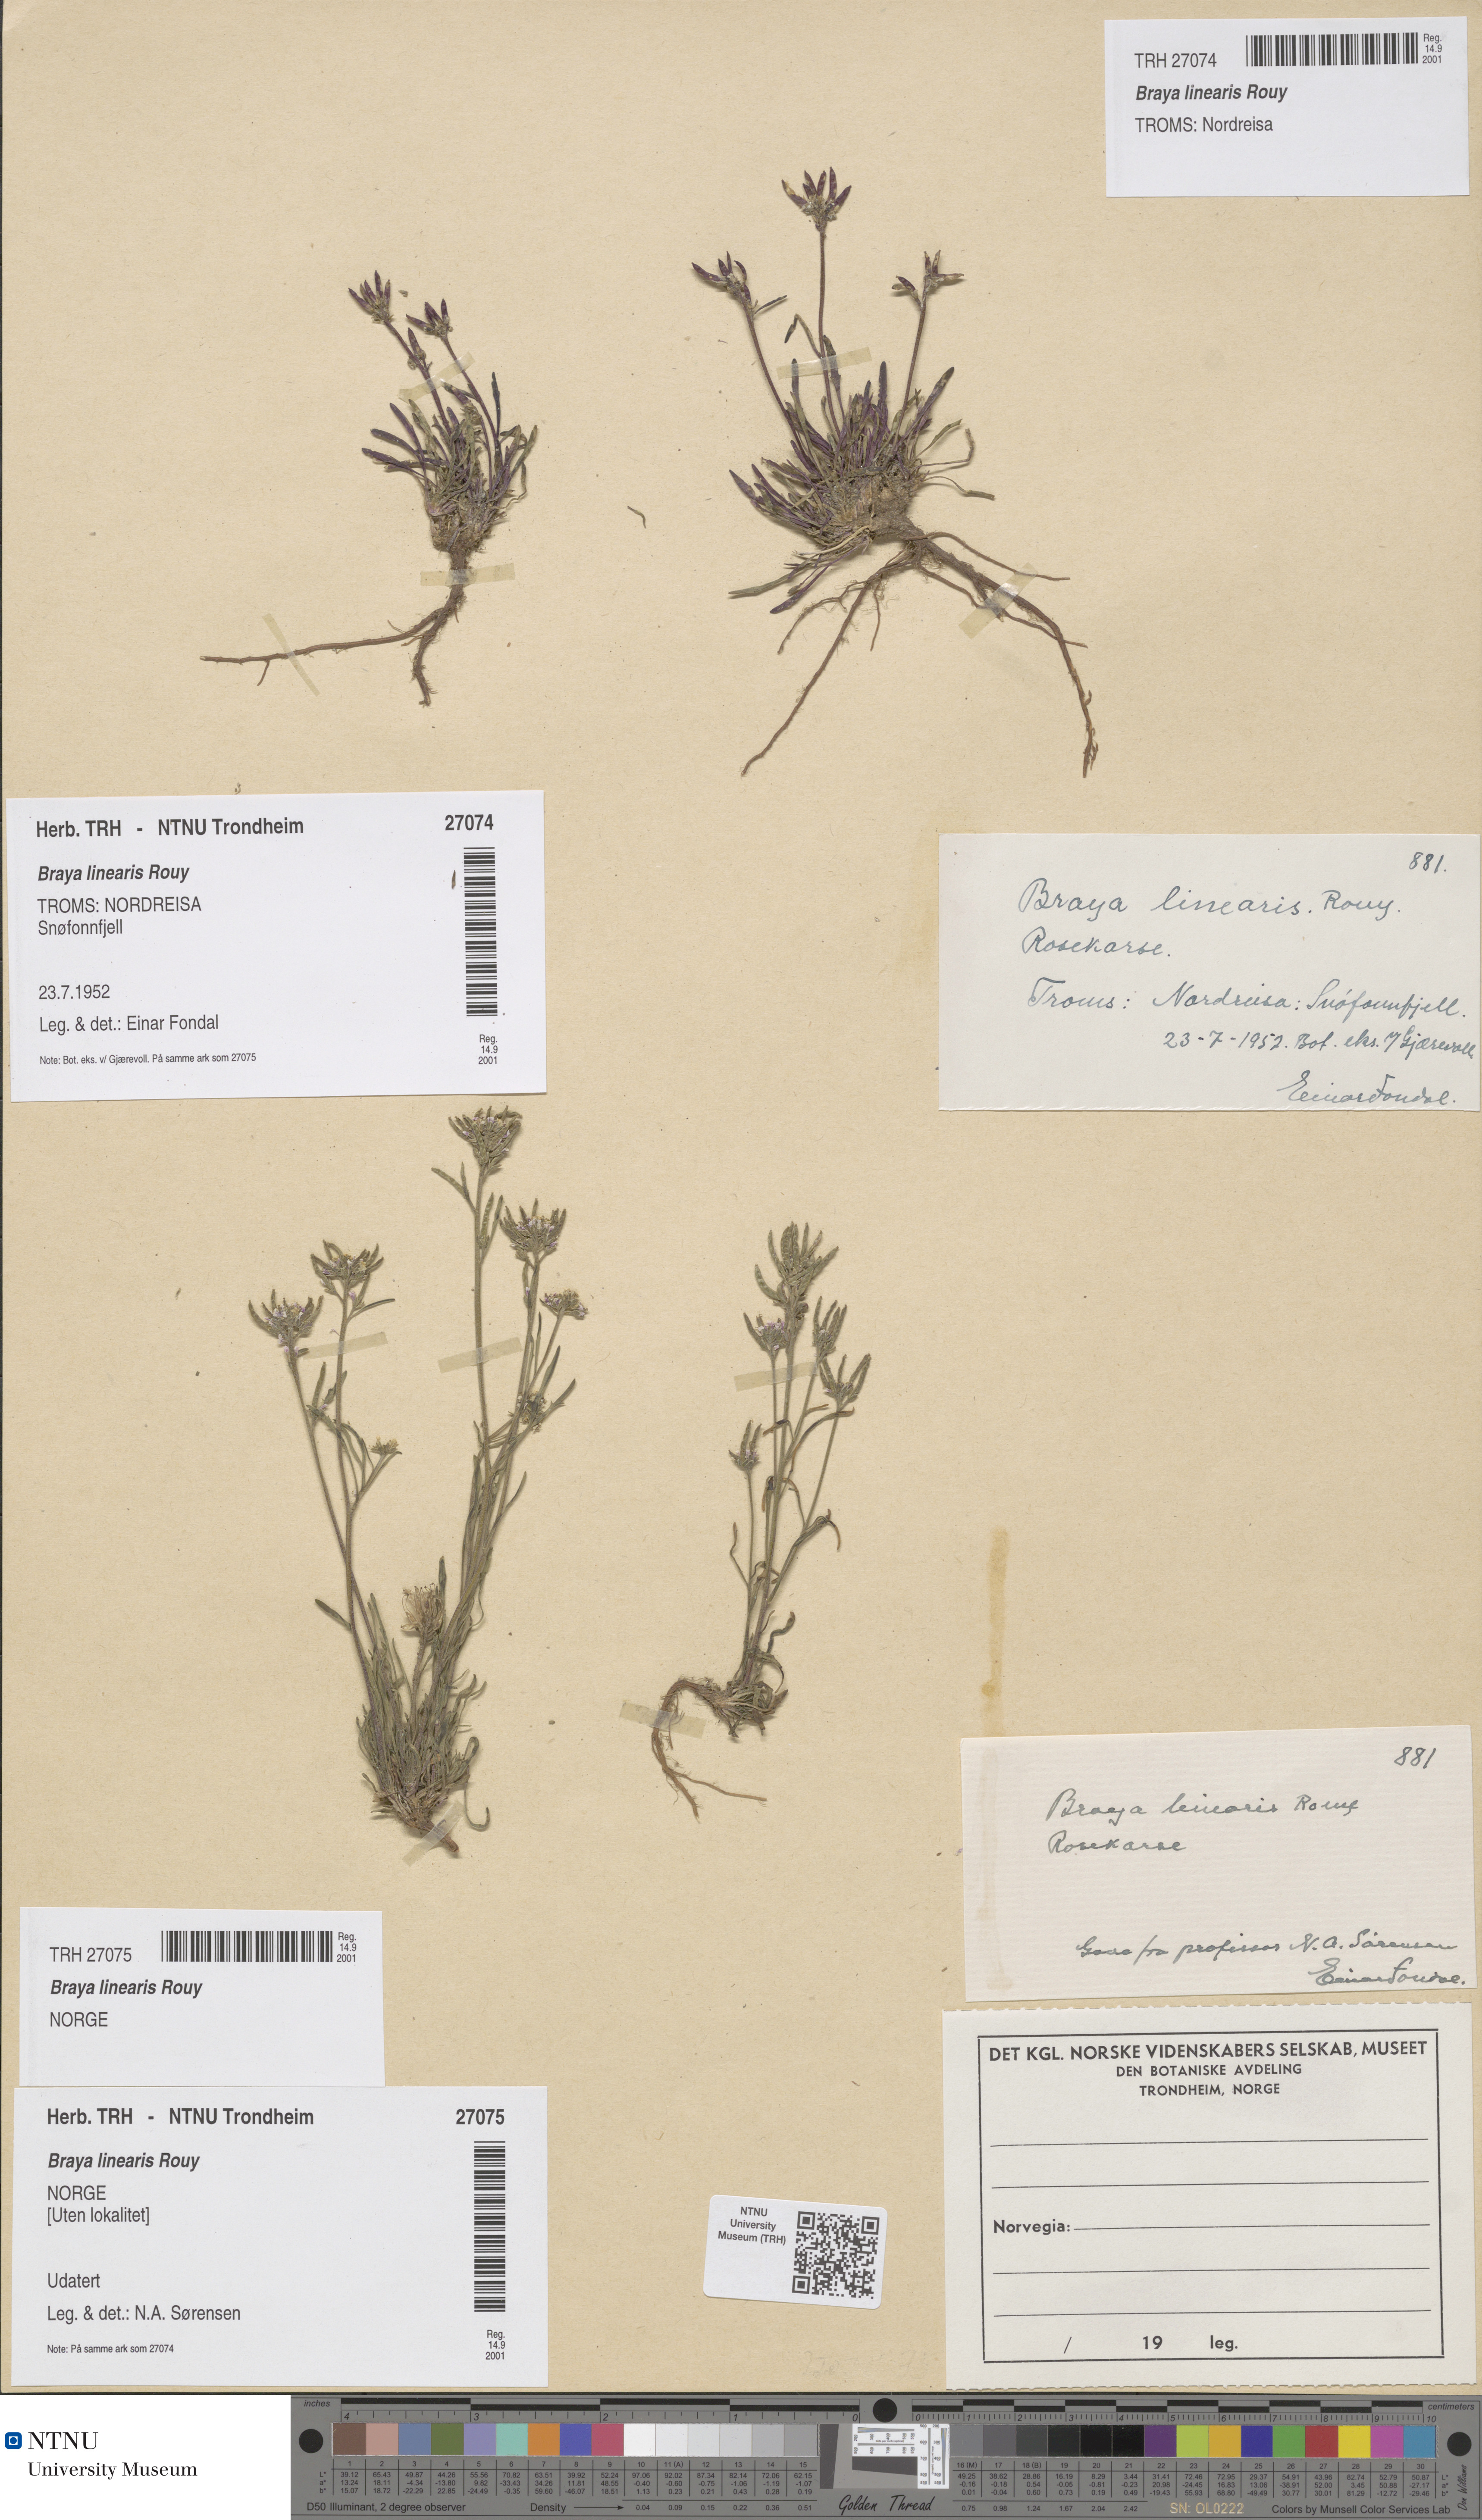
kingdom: Plantae
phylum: Tracheophyta
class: Magnoliopsida
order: Brassicales
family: Brassicaceae
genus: Braya
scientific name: Braya linearis
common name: Narrow-fruit braya
